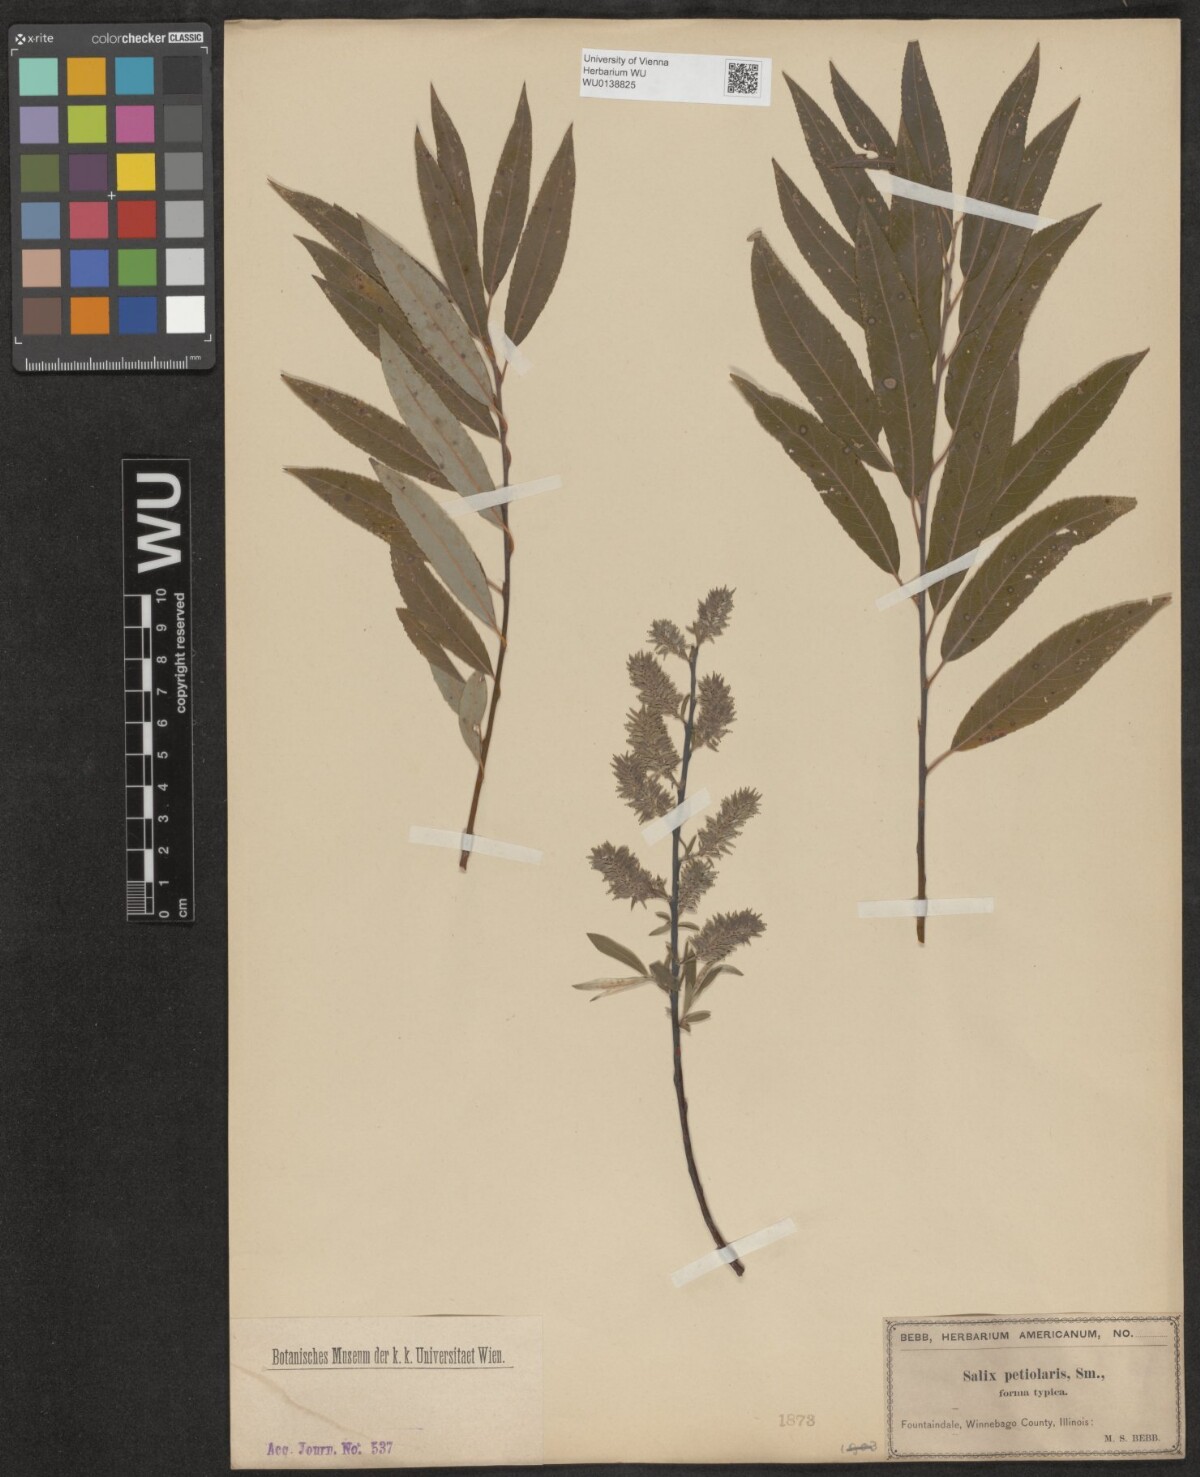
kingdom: Plantae
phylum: Tracheophyta
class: Magnoliopsida
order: Malpighiales
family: Salicaceae
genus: Salix
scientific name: Salix petiolaris
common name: Slender willow
